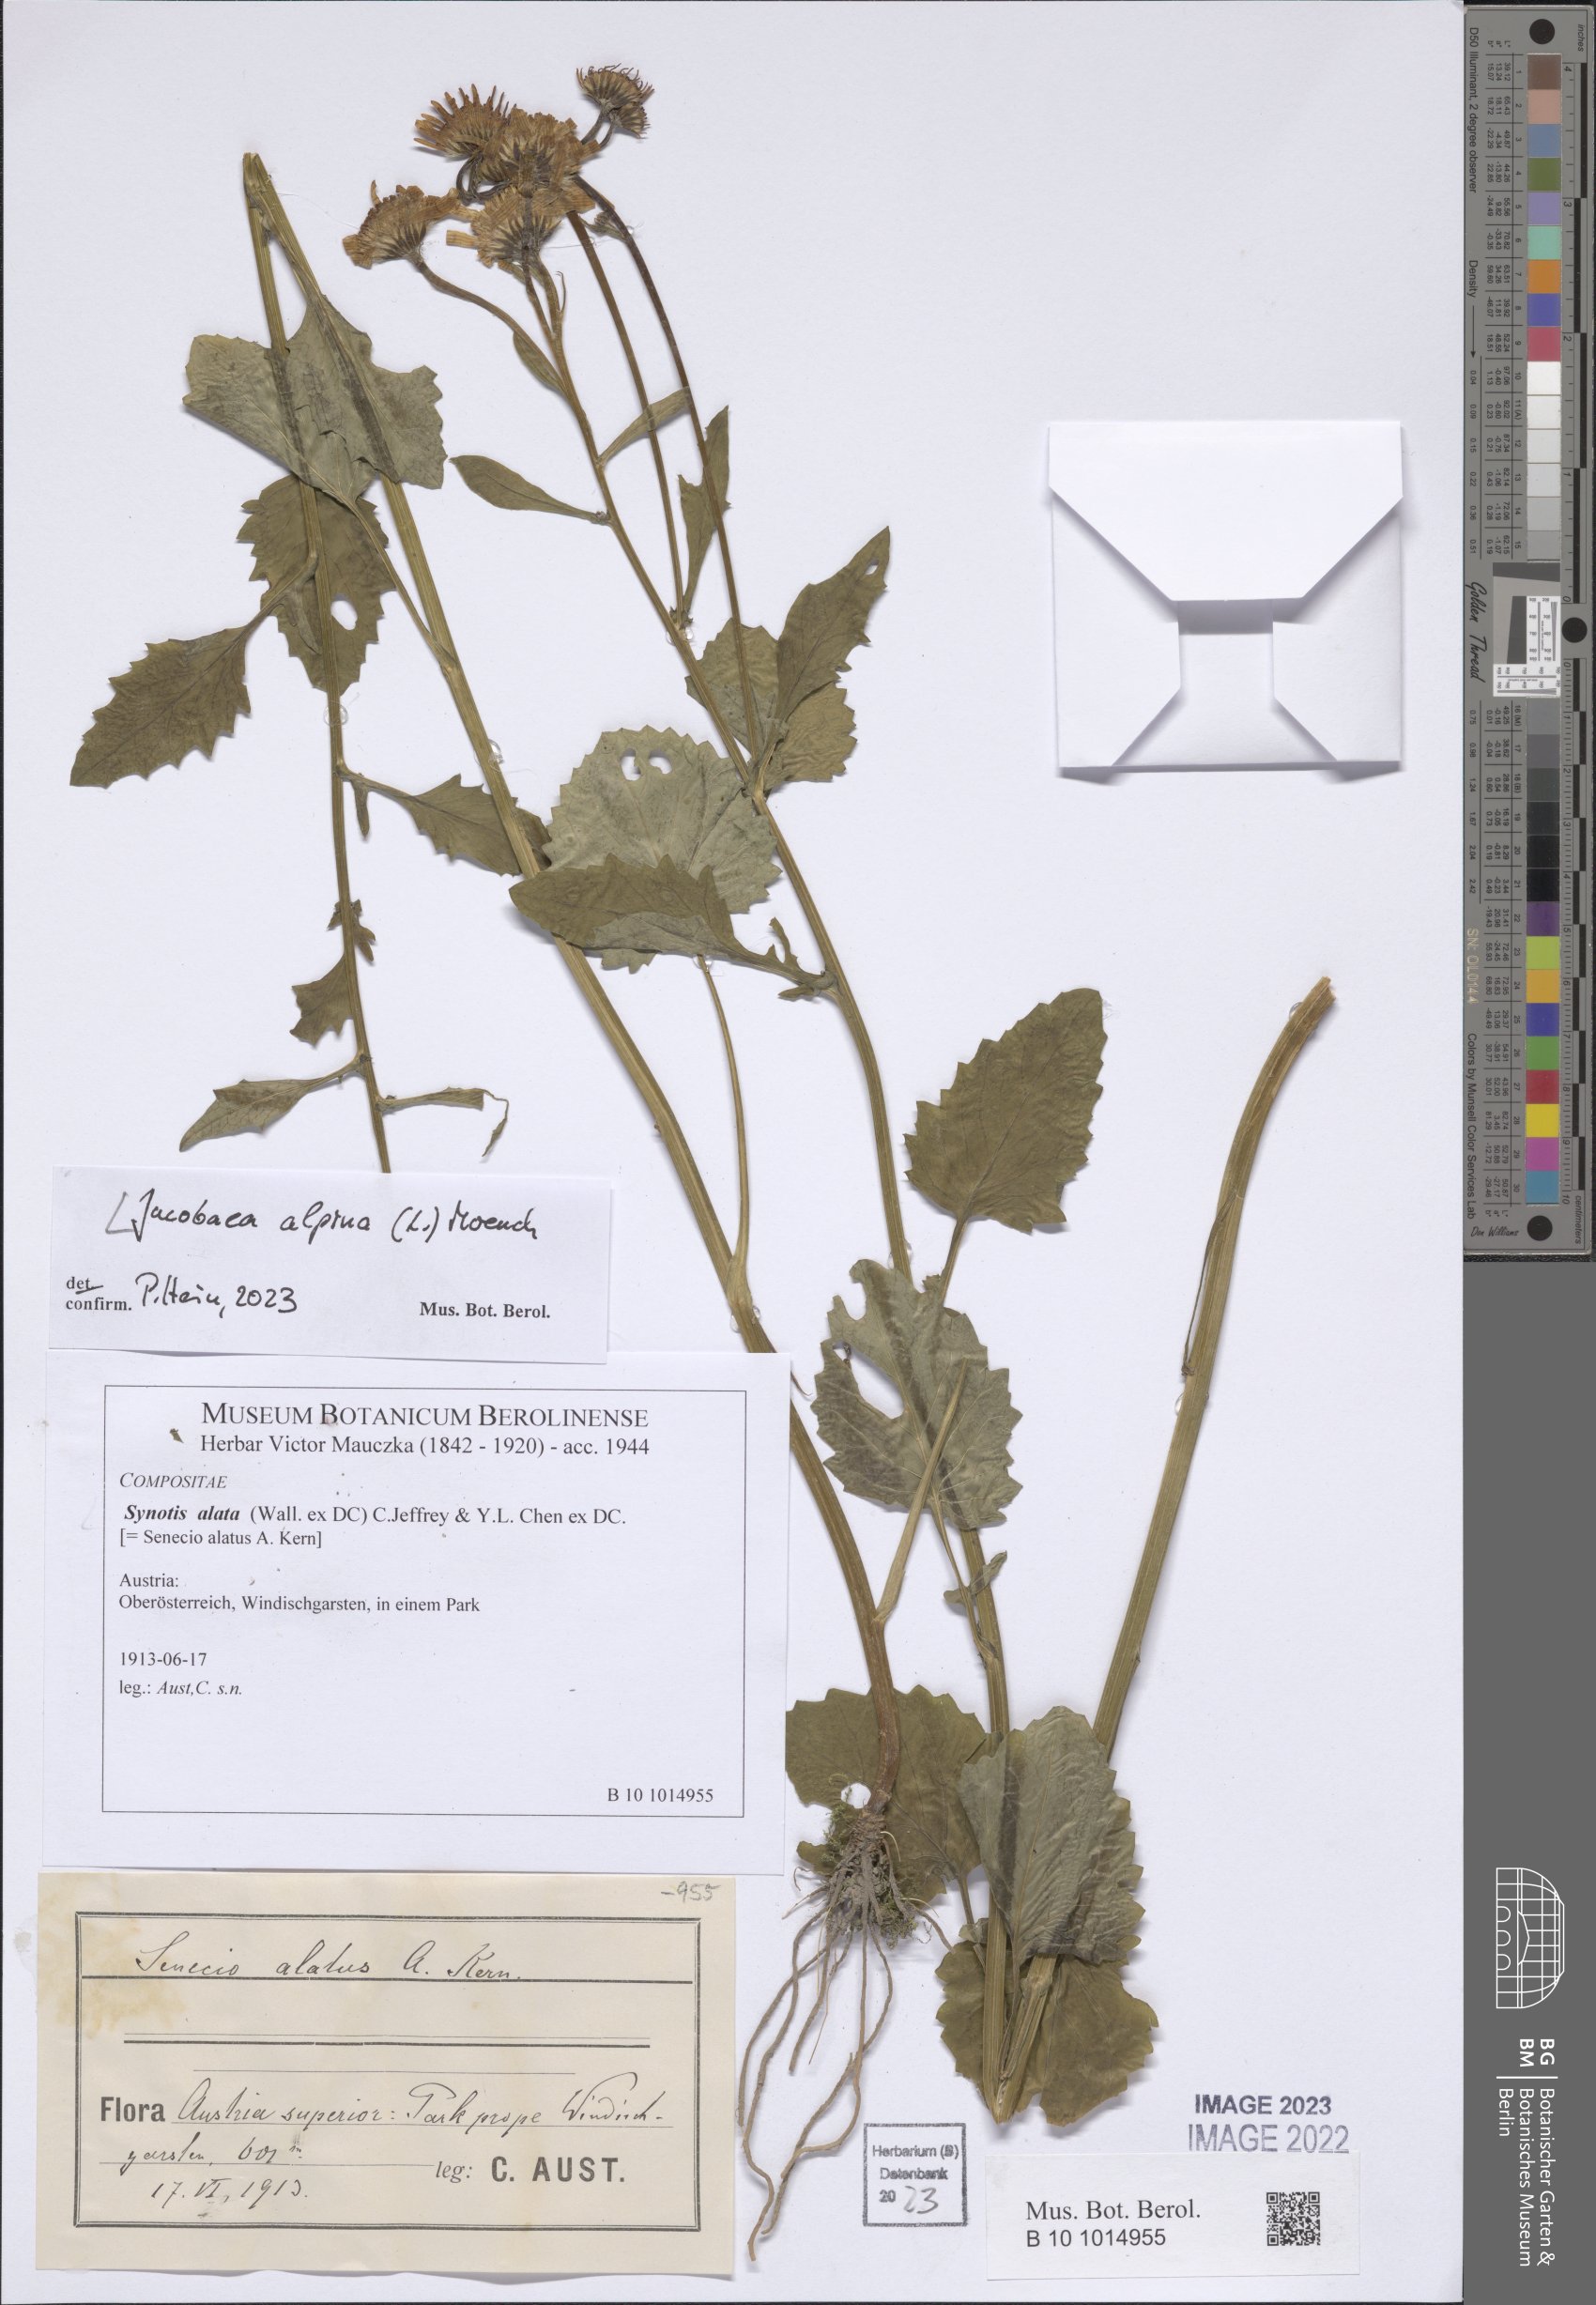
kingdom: Plantae
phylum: Tracheophyta
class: Magnoliopsida
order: Asterales
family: Asteraceae
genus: Jacobaea
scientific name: Jacobaea alpina
